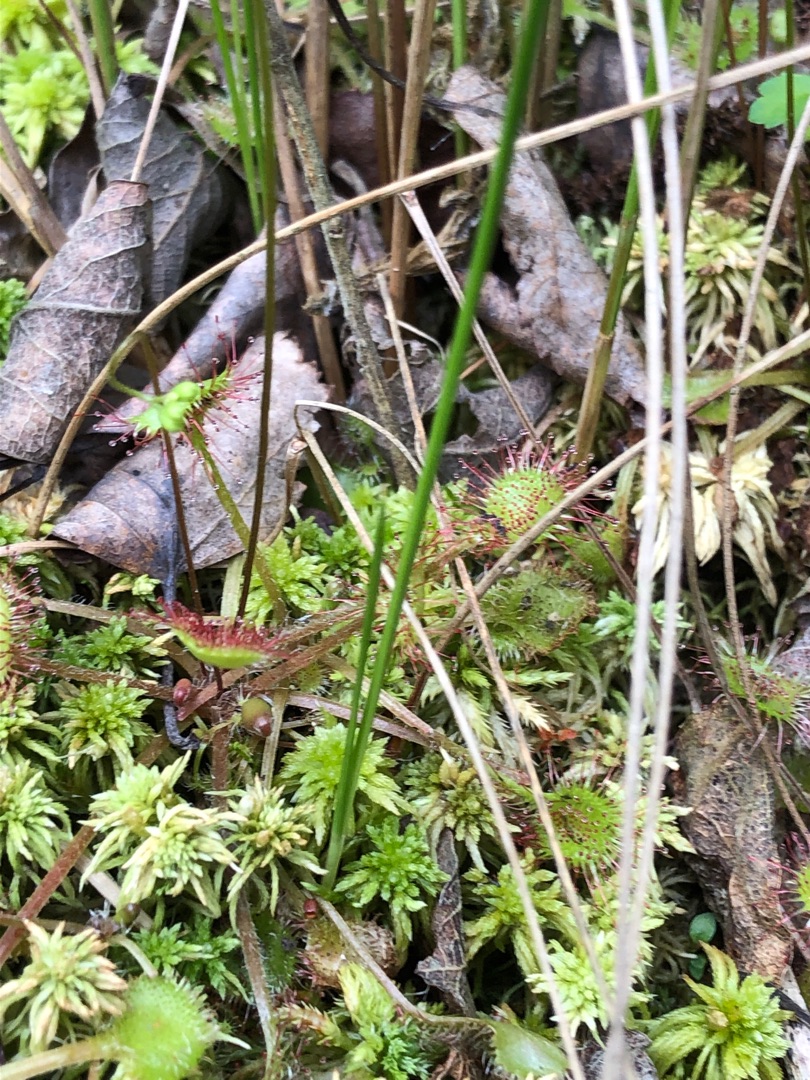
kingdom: Plantae
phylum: Tracheophyta
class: Magnoliopsida
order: Caryophyllales
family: Droseraceae
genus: Drosera
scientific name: Drosera rotundifolia
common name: Rundbladet soldug
